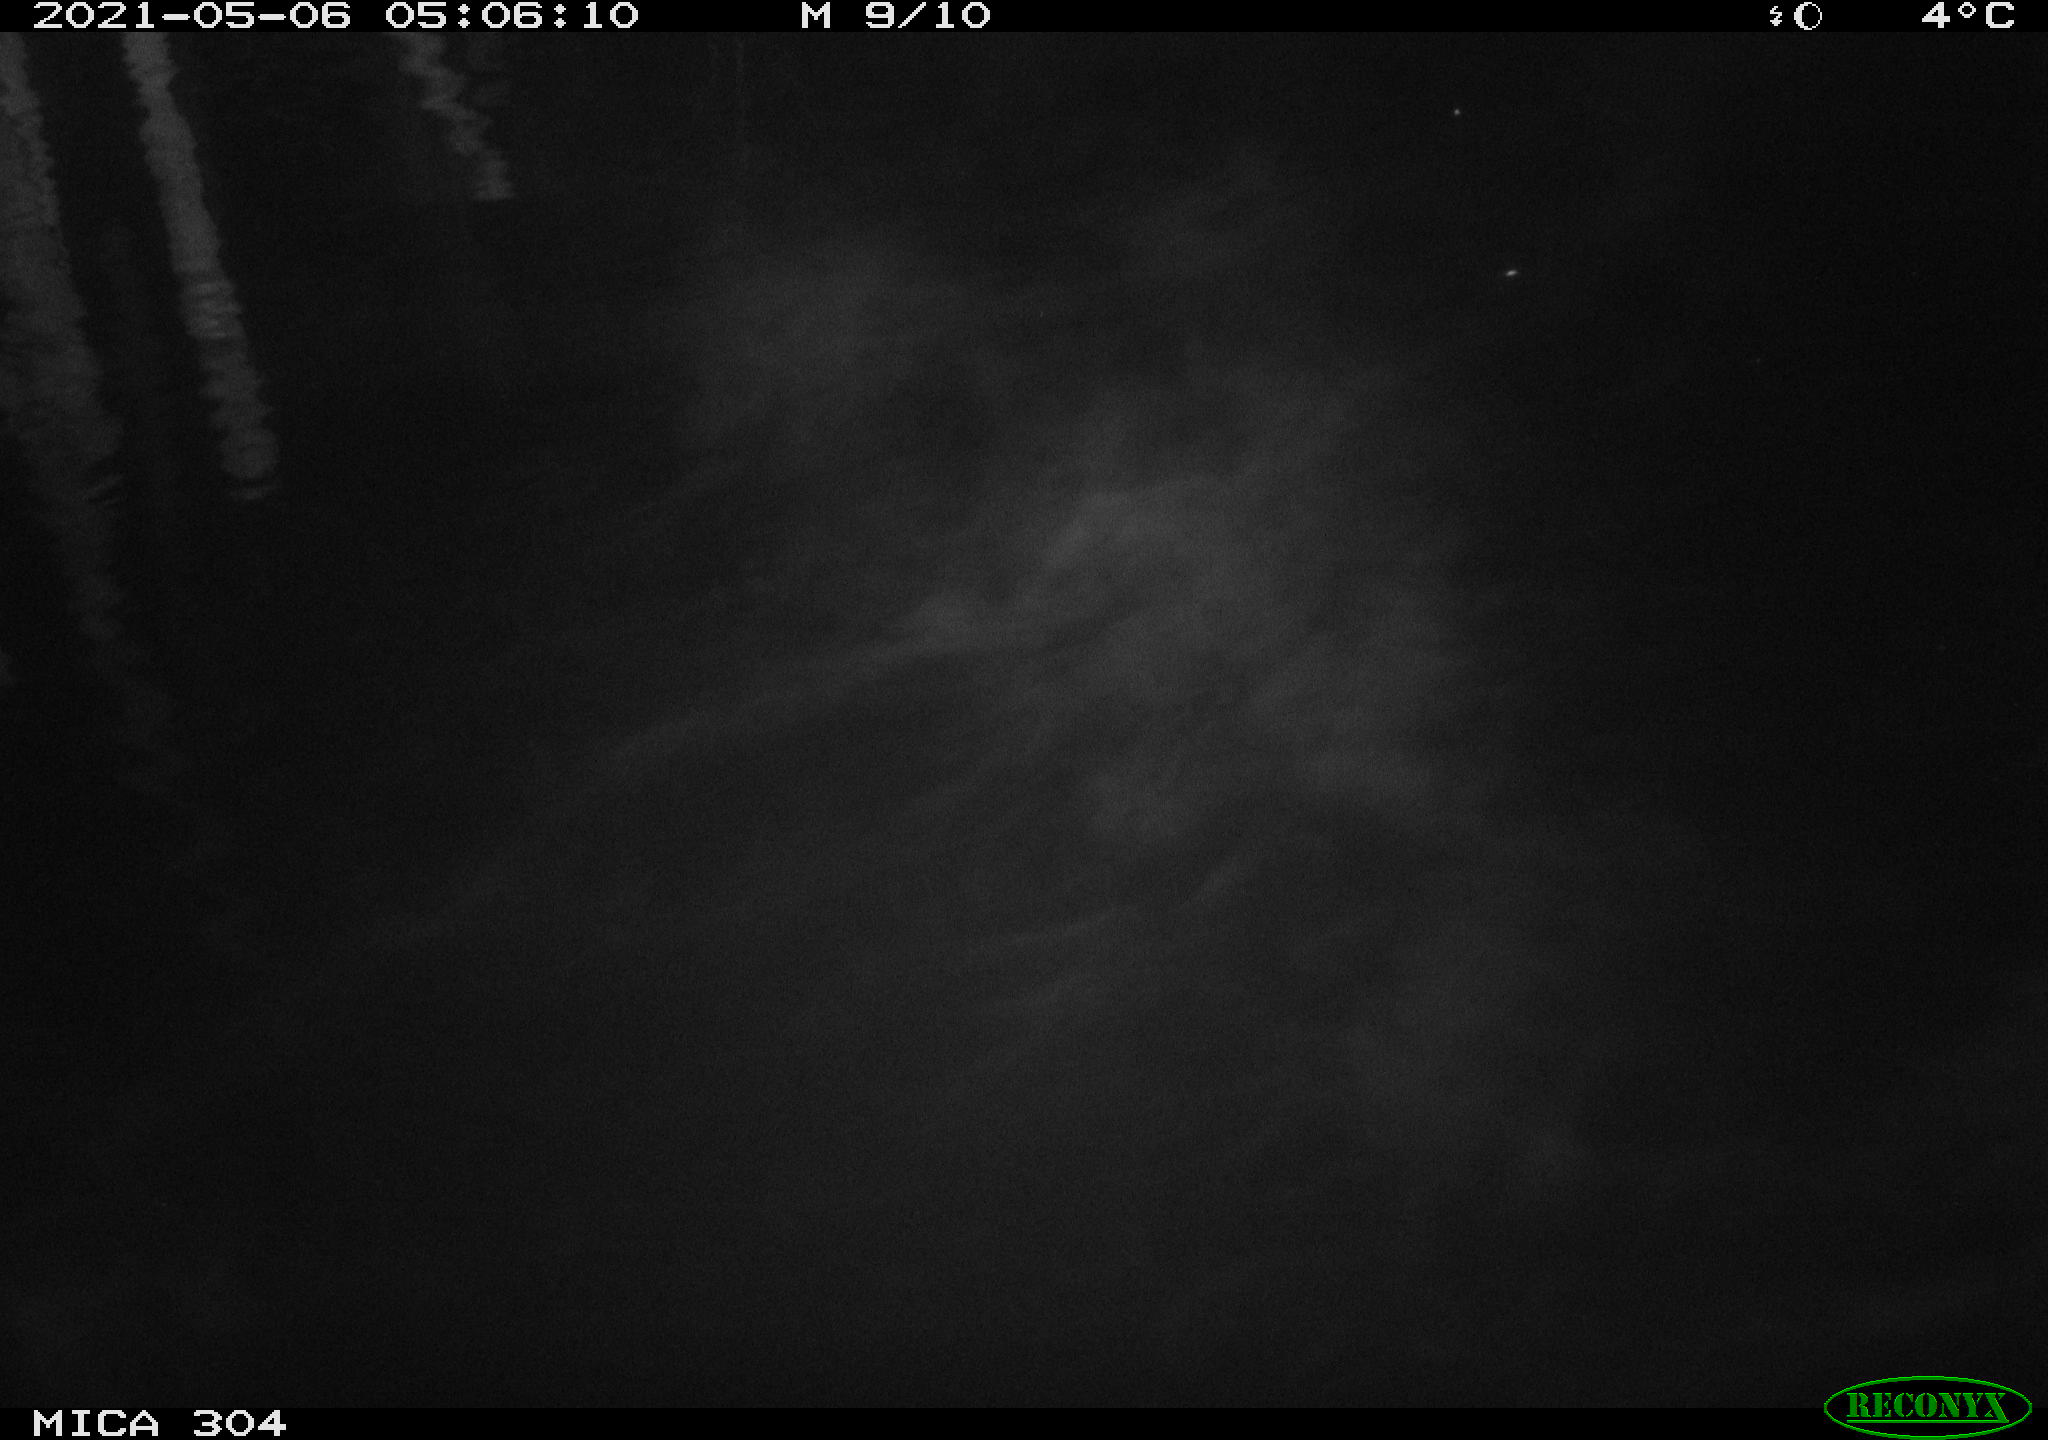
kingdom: Animalia
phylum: Chordata
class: Aves
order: Anseriformes
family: Anatidae
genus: Anas
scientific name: Anas platyrhynchos
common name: Mallard
